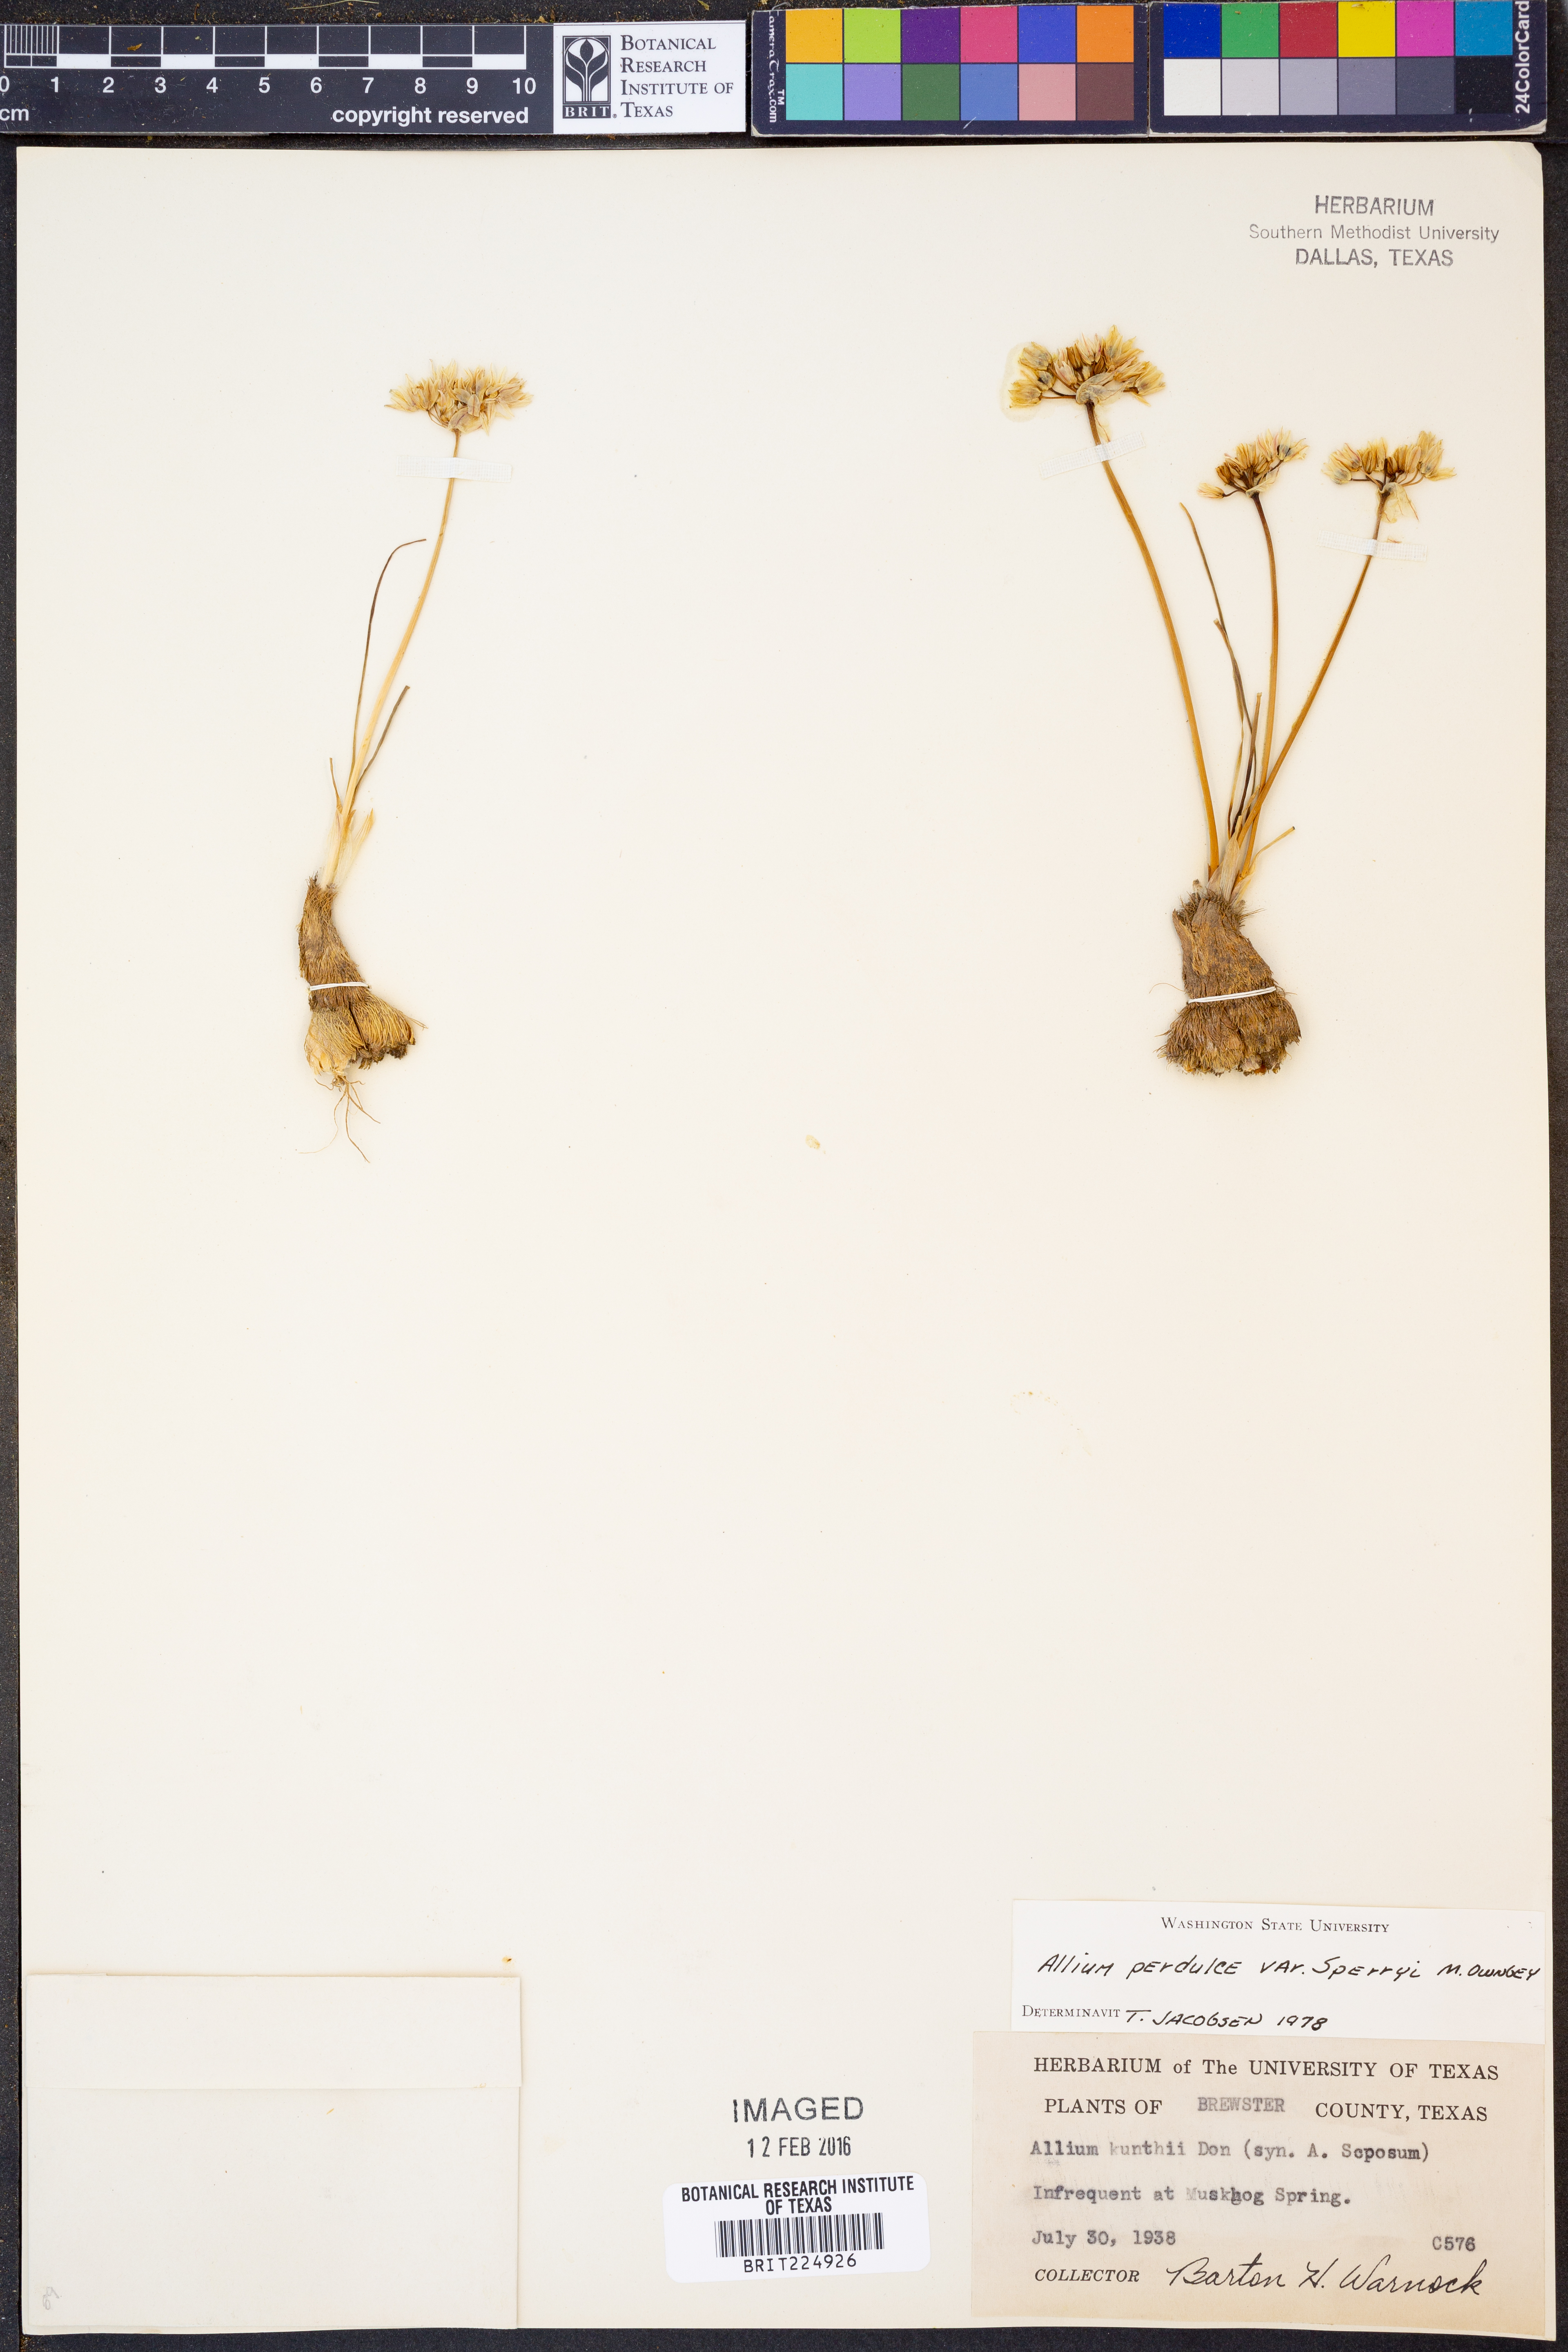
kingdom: Plantae
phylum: Tracheophyta
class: Liliopsida
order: Asparagales
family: Amaryllidaceae
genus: Allium
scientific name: Allium perdulce
